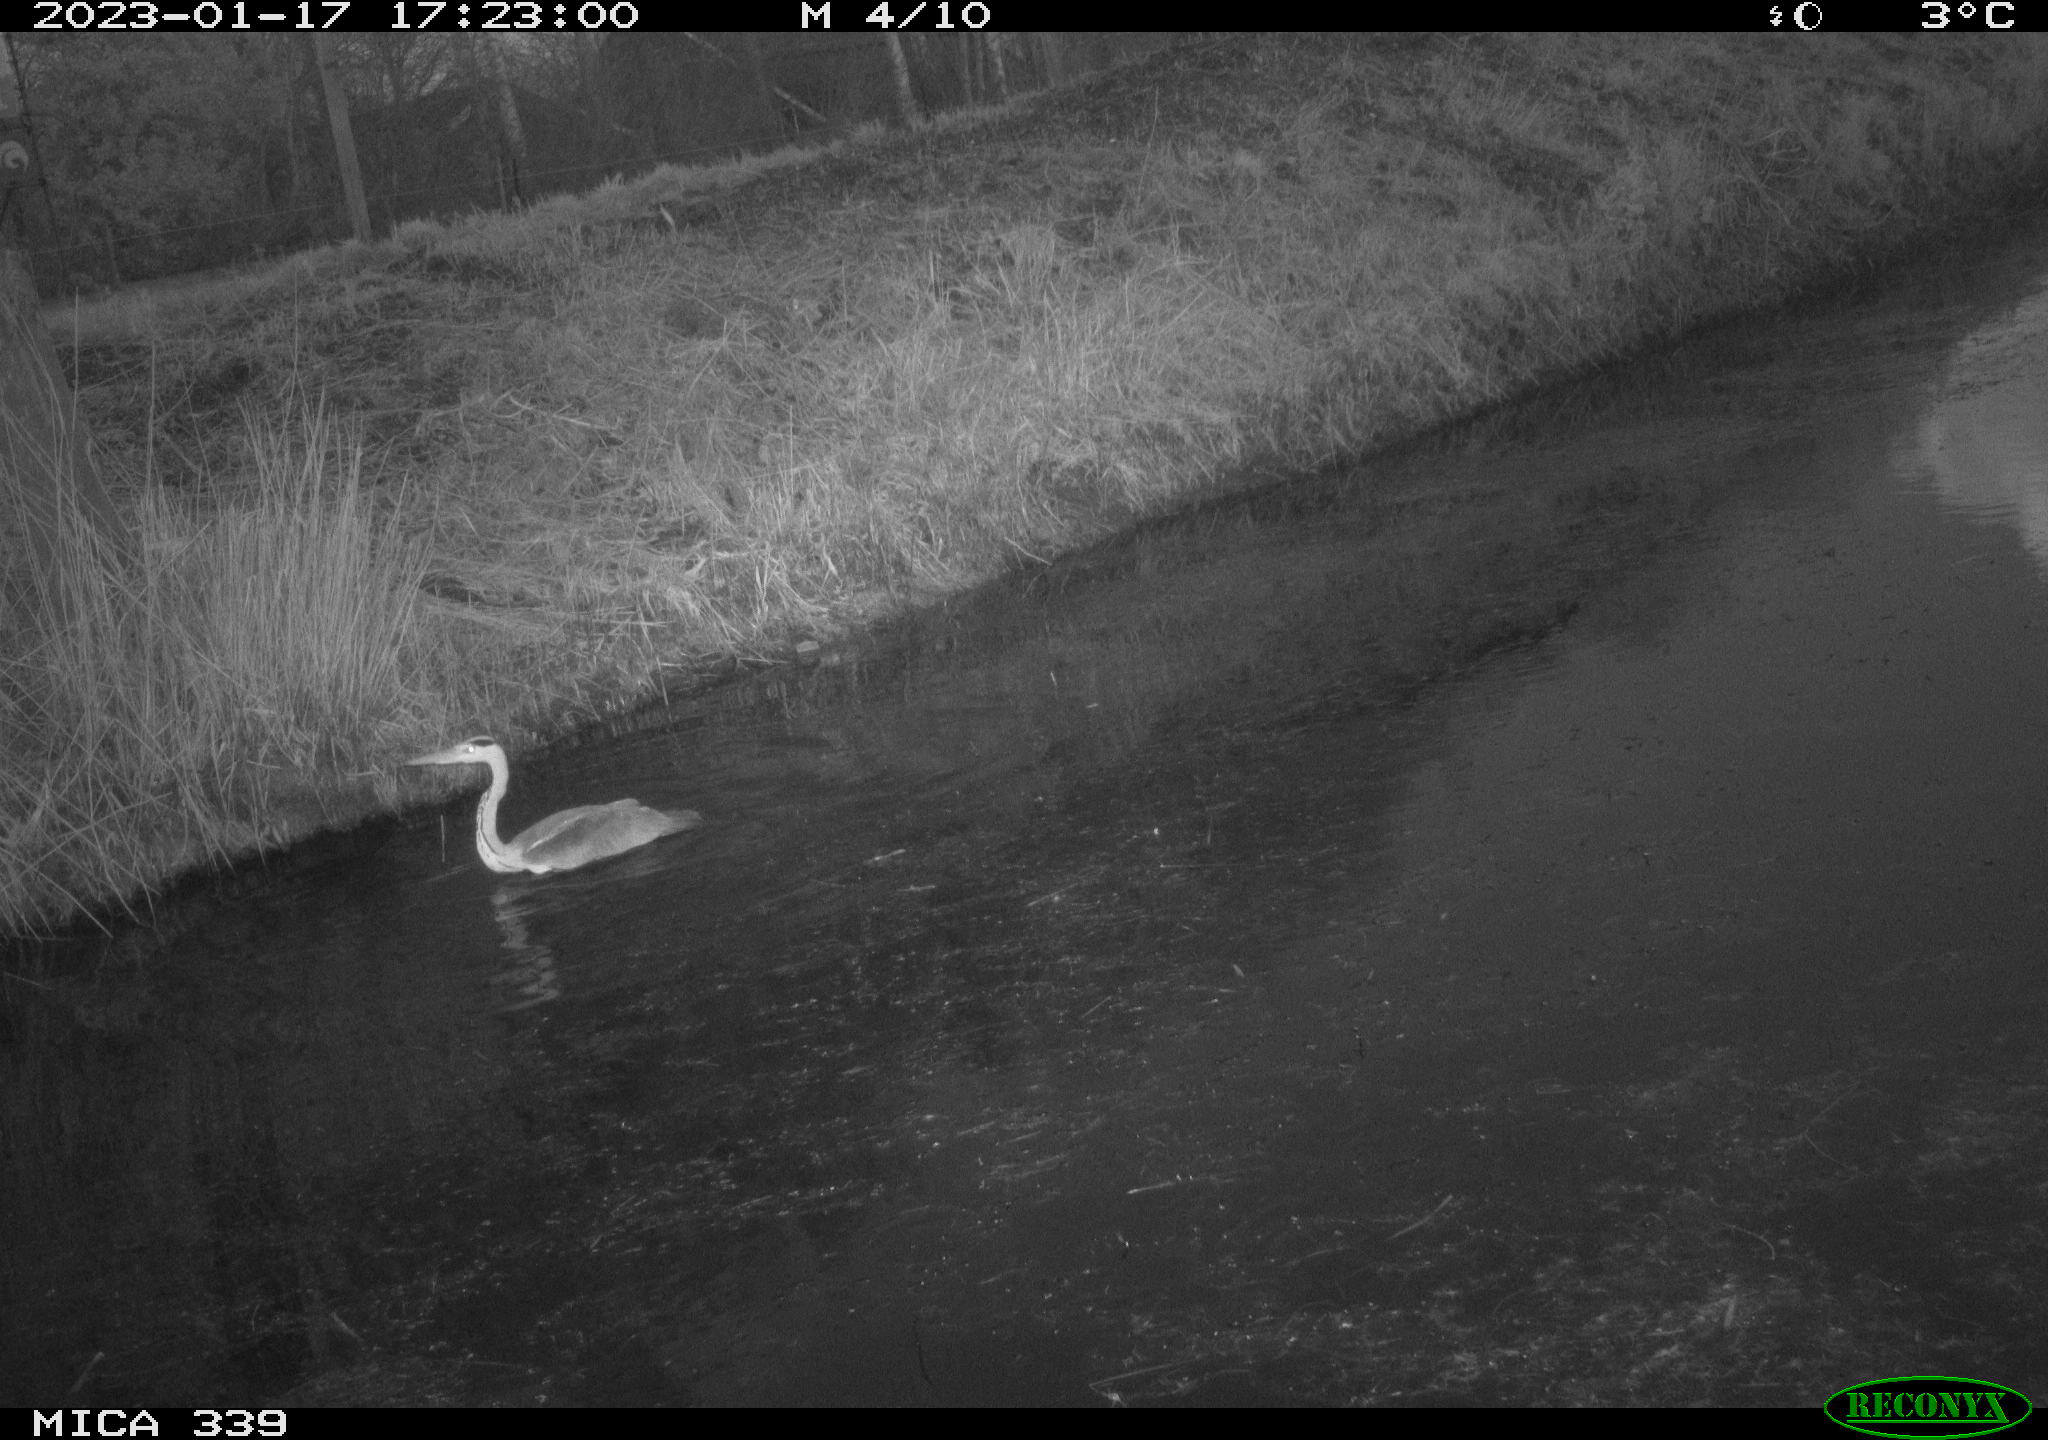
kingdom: Animalia
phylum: Chordata
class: Aves
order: Pelecaniformes
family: Ardeidae
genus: Ardea
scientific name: Ardea cinerea
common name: Grey heron
